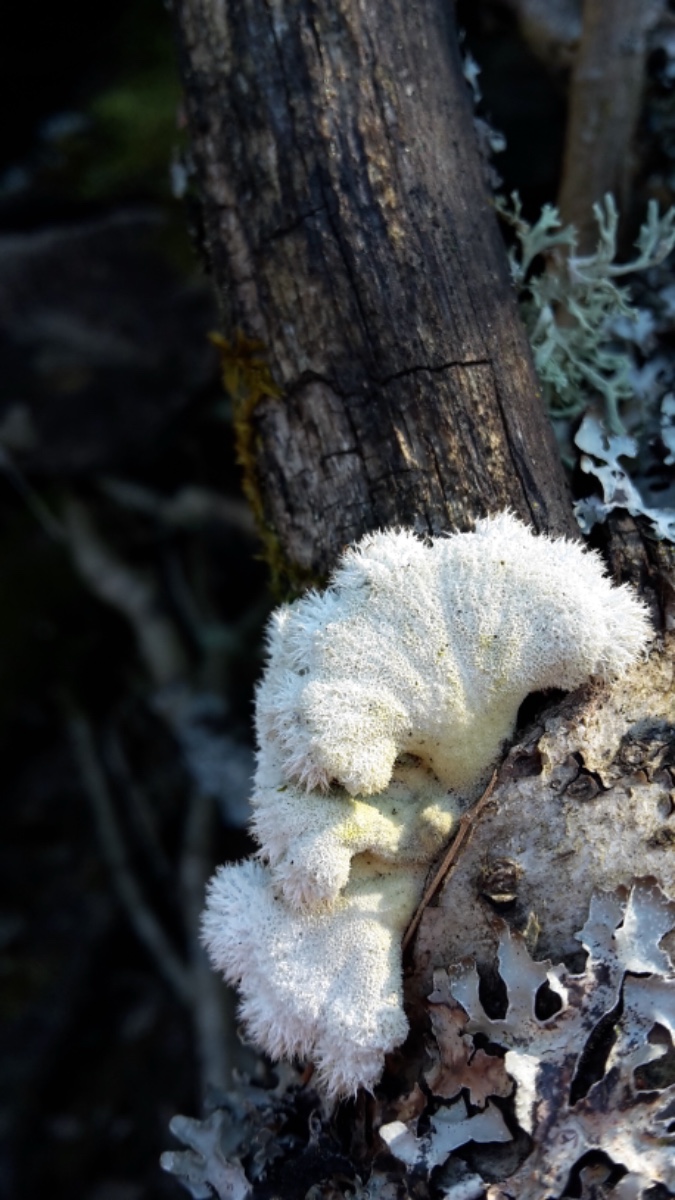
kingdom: Fungi
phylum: Basidiomycota
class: Agaricomycetes
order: Agaricales
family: Schizophyllaceae
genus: Schizophyllum
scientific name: Schizophyllum commune
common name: kløvblad
